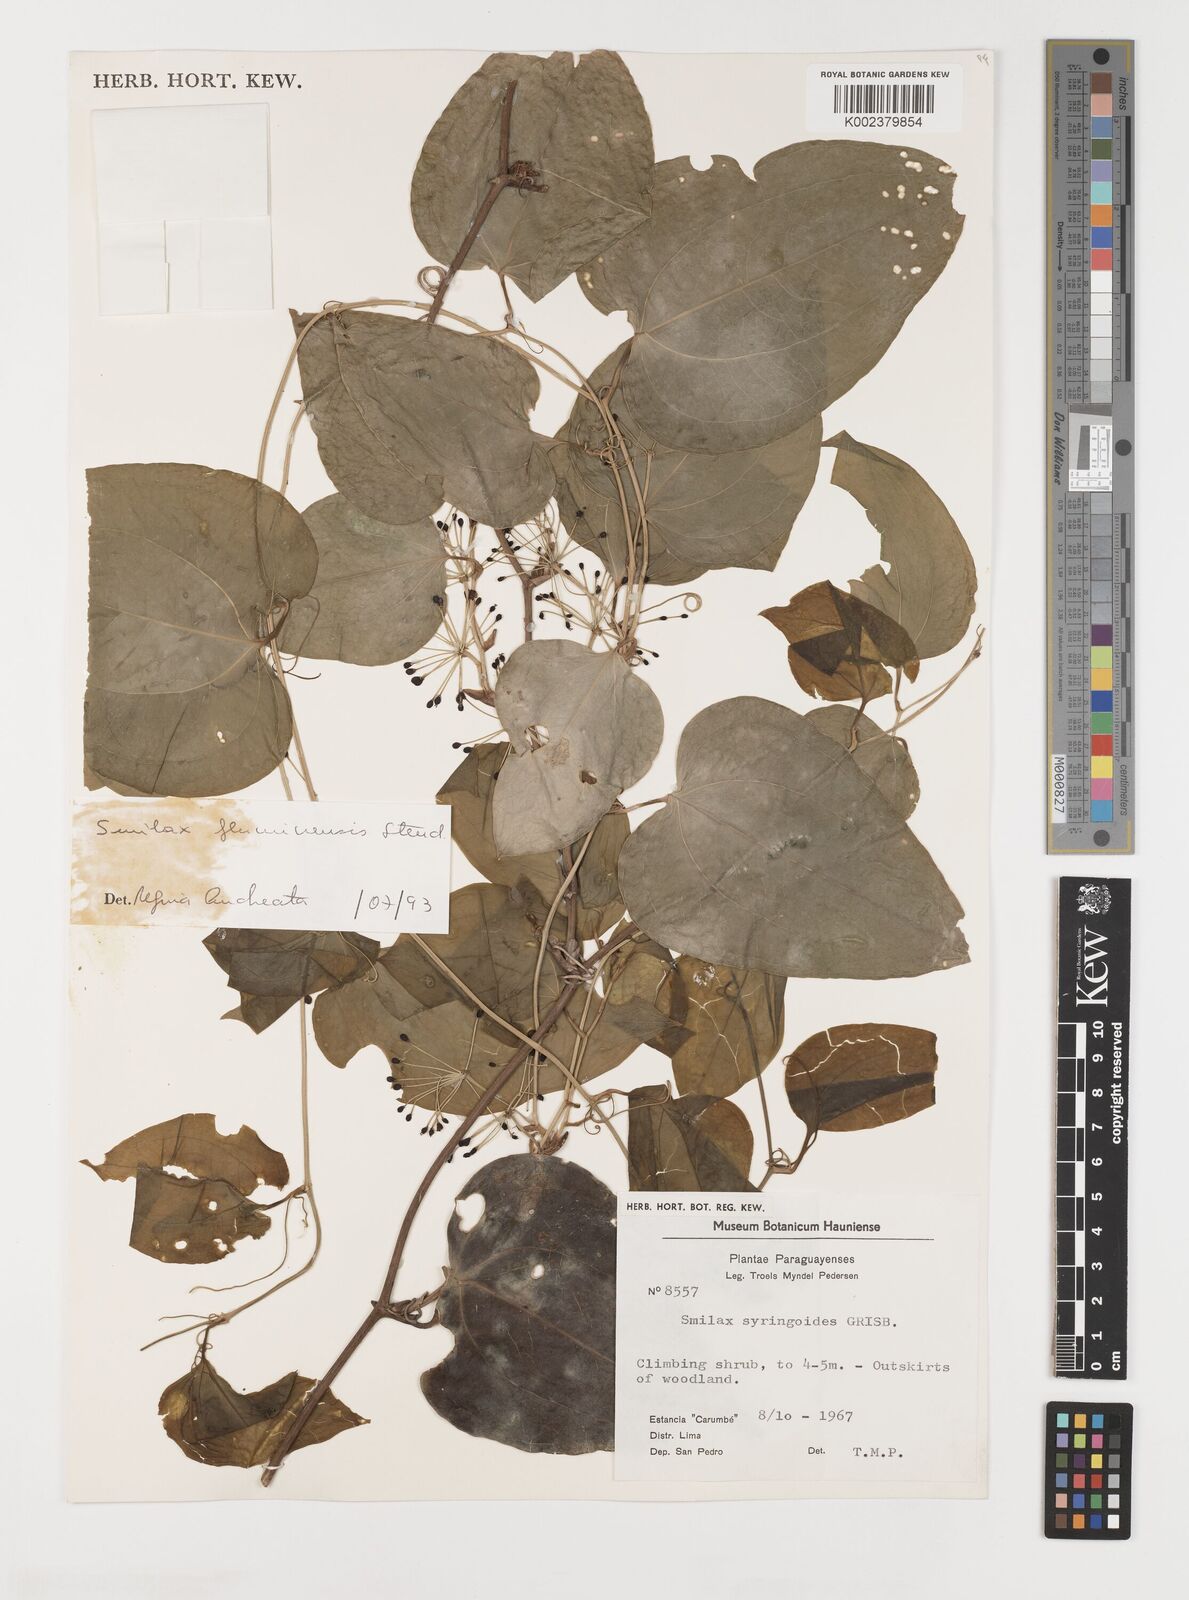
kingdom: Plantae
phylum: Tracheophyta
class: Liliopsida
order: Liliales
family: Smilacaceae
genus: Smilax
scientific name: Smilax fluminensis
